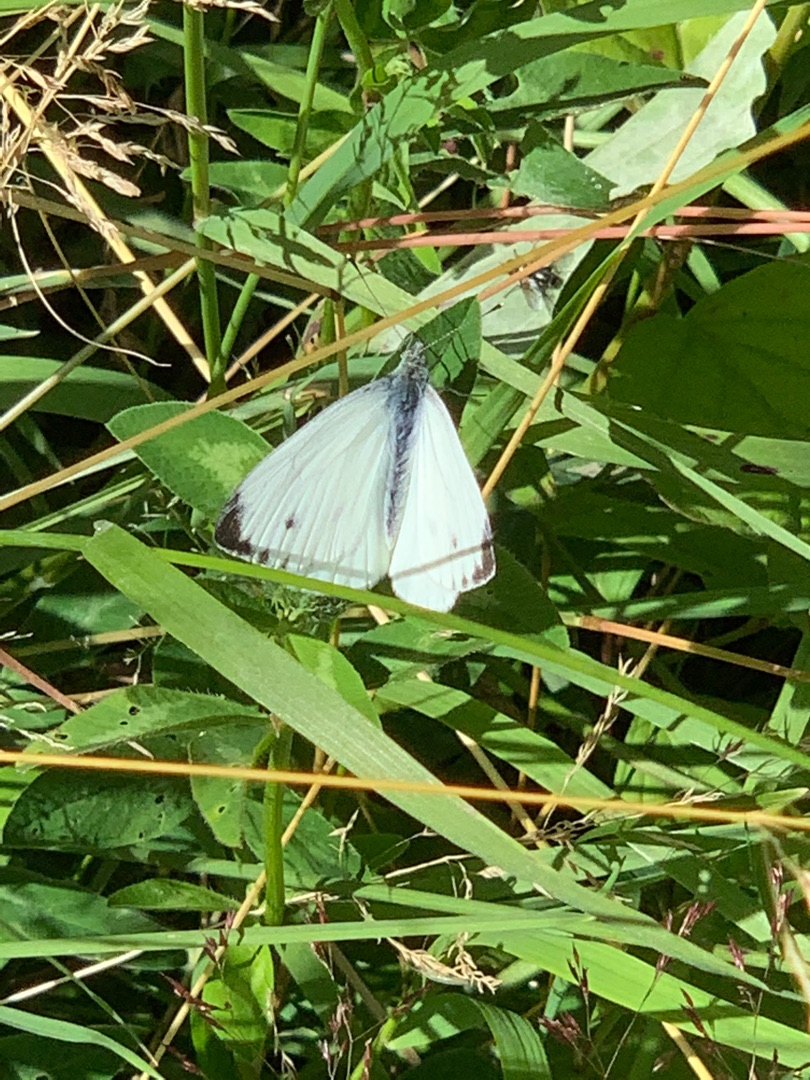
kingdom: Animalia
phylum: Arthropoda
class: Insecta
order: Lepidoptera
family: Pieridae
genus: Pieris
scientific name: Pieris napi
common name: Grønåret kålsommerfugl
